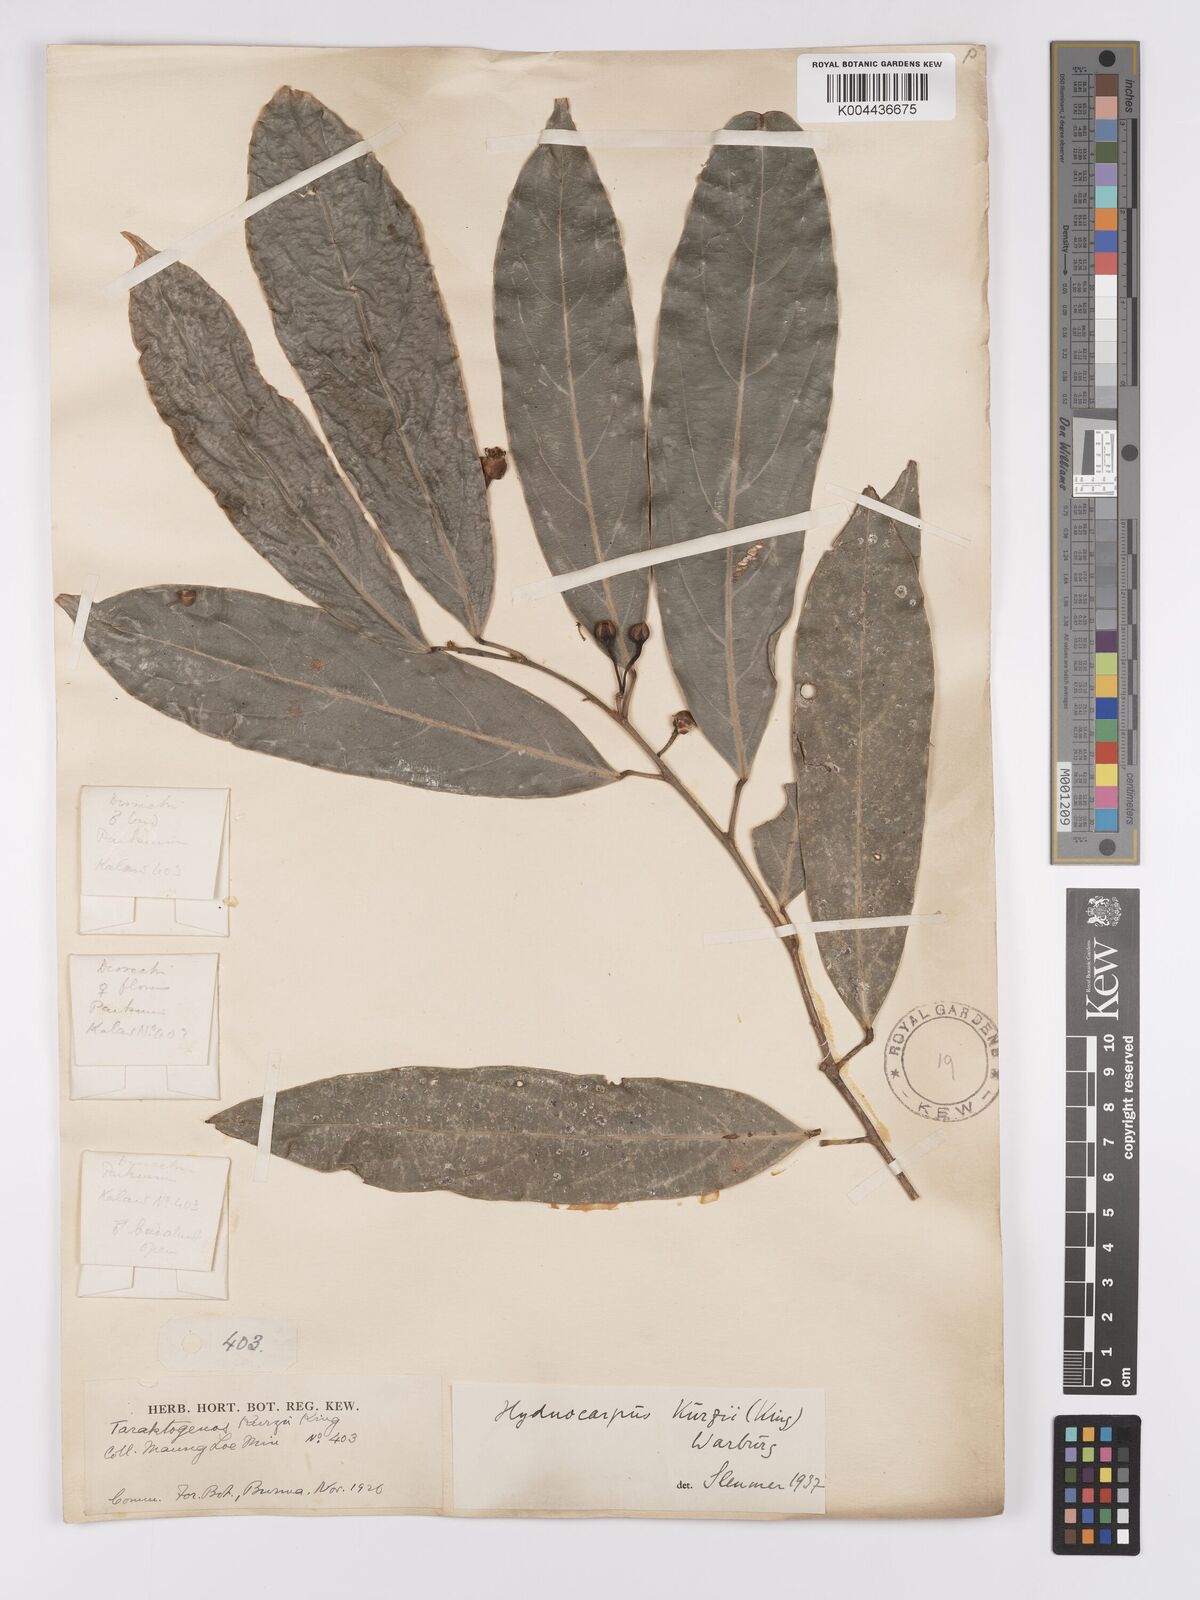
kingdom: Plantae
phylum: Tracheophyta
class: Magnoliopsida
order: Malpighiales
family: Achariaceae
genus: Hydnocarpus
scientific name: Hydnocarpus kurzii
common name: Chaulmoogra
